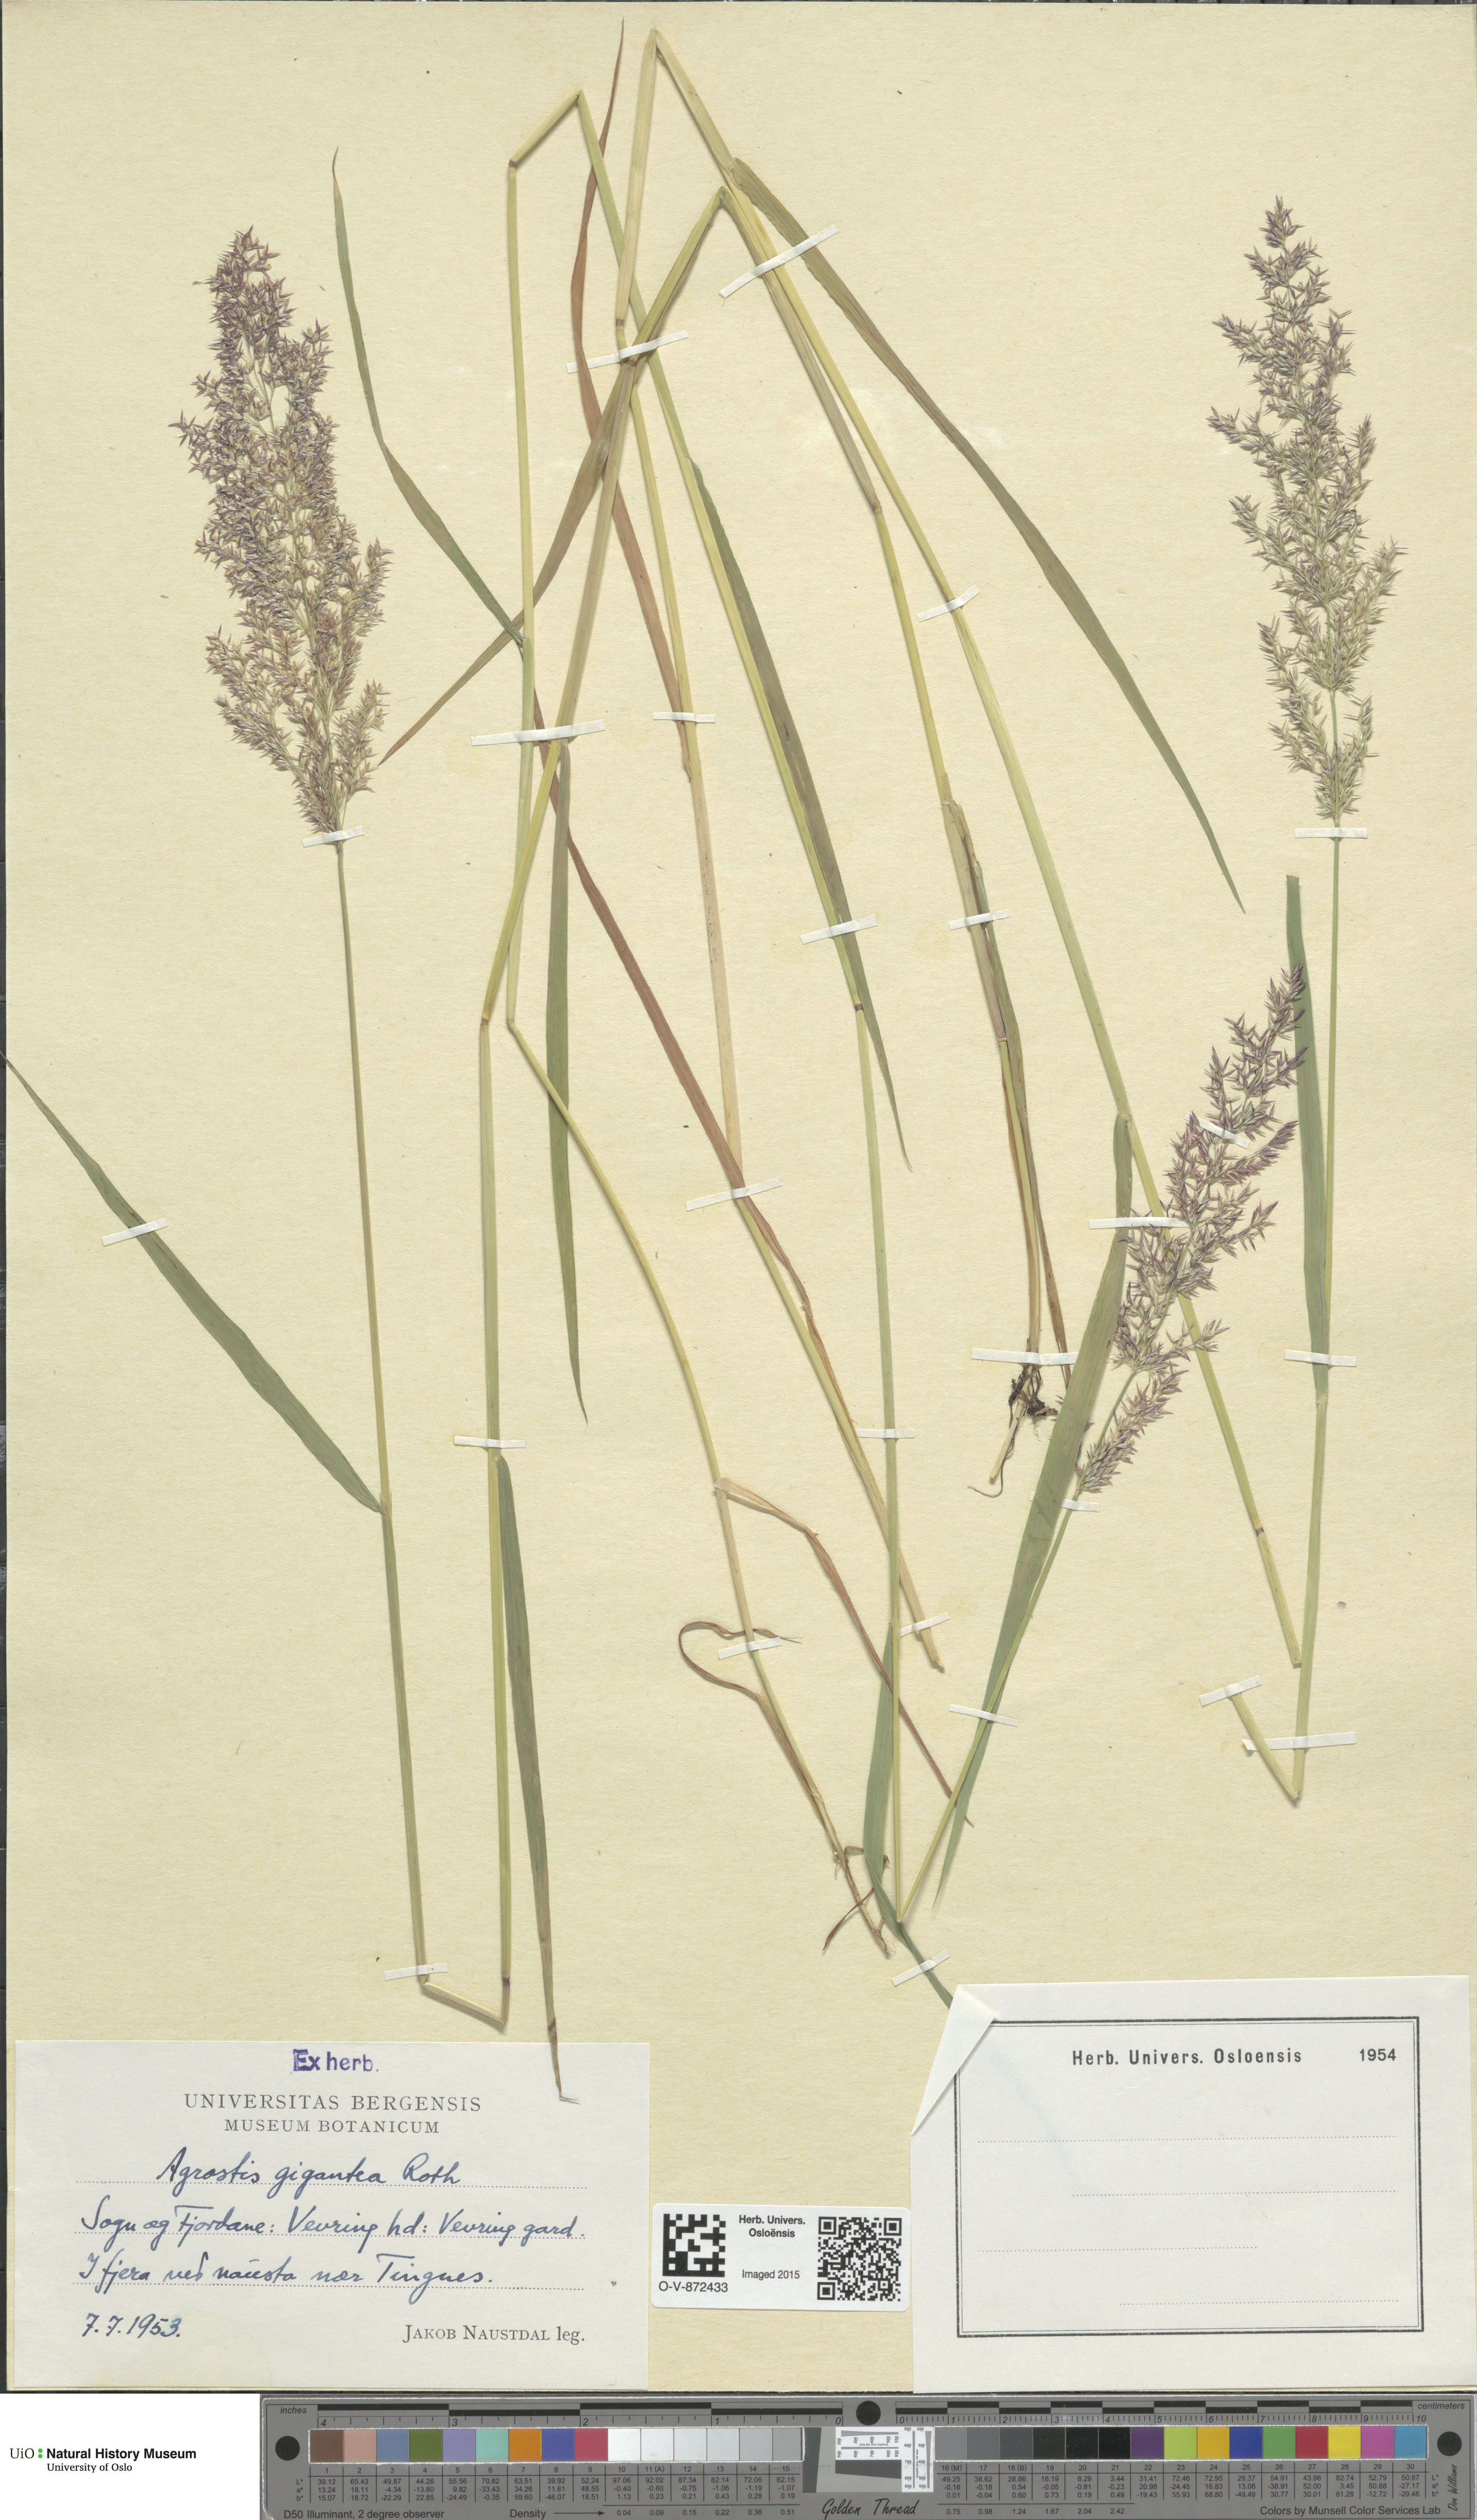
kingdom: Plantae
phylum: Tracheophyta
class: Liliopsida
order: Poales
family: Poaceae
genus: Agrostis
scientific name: Agrostis gigantea
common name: Black bent
